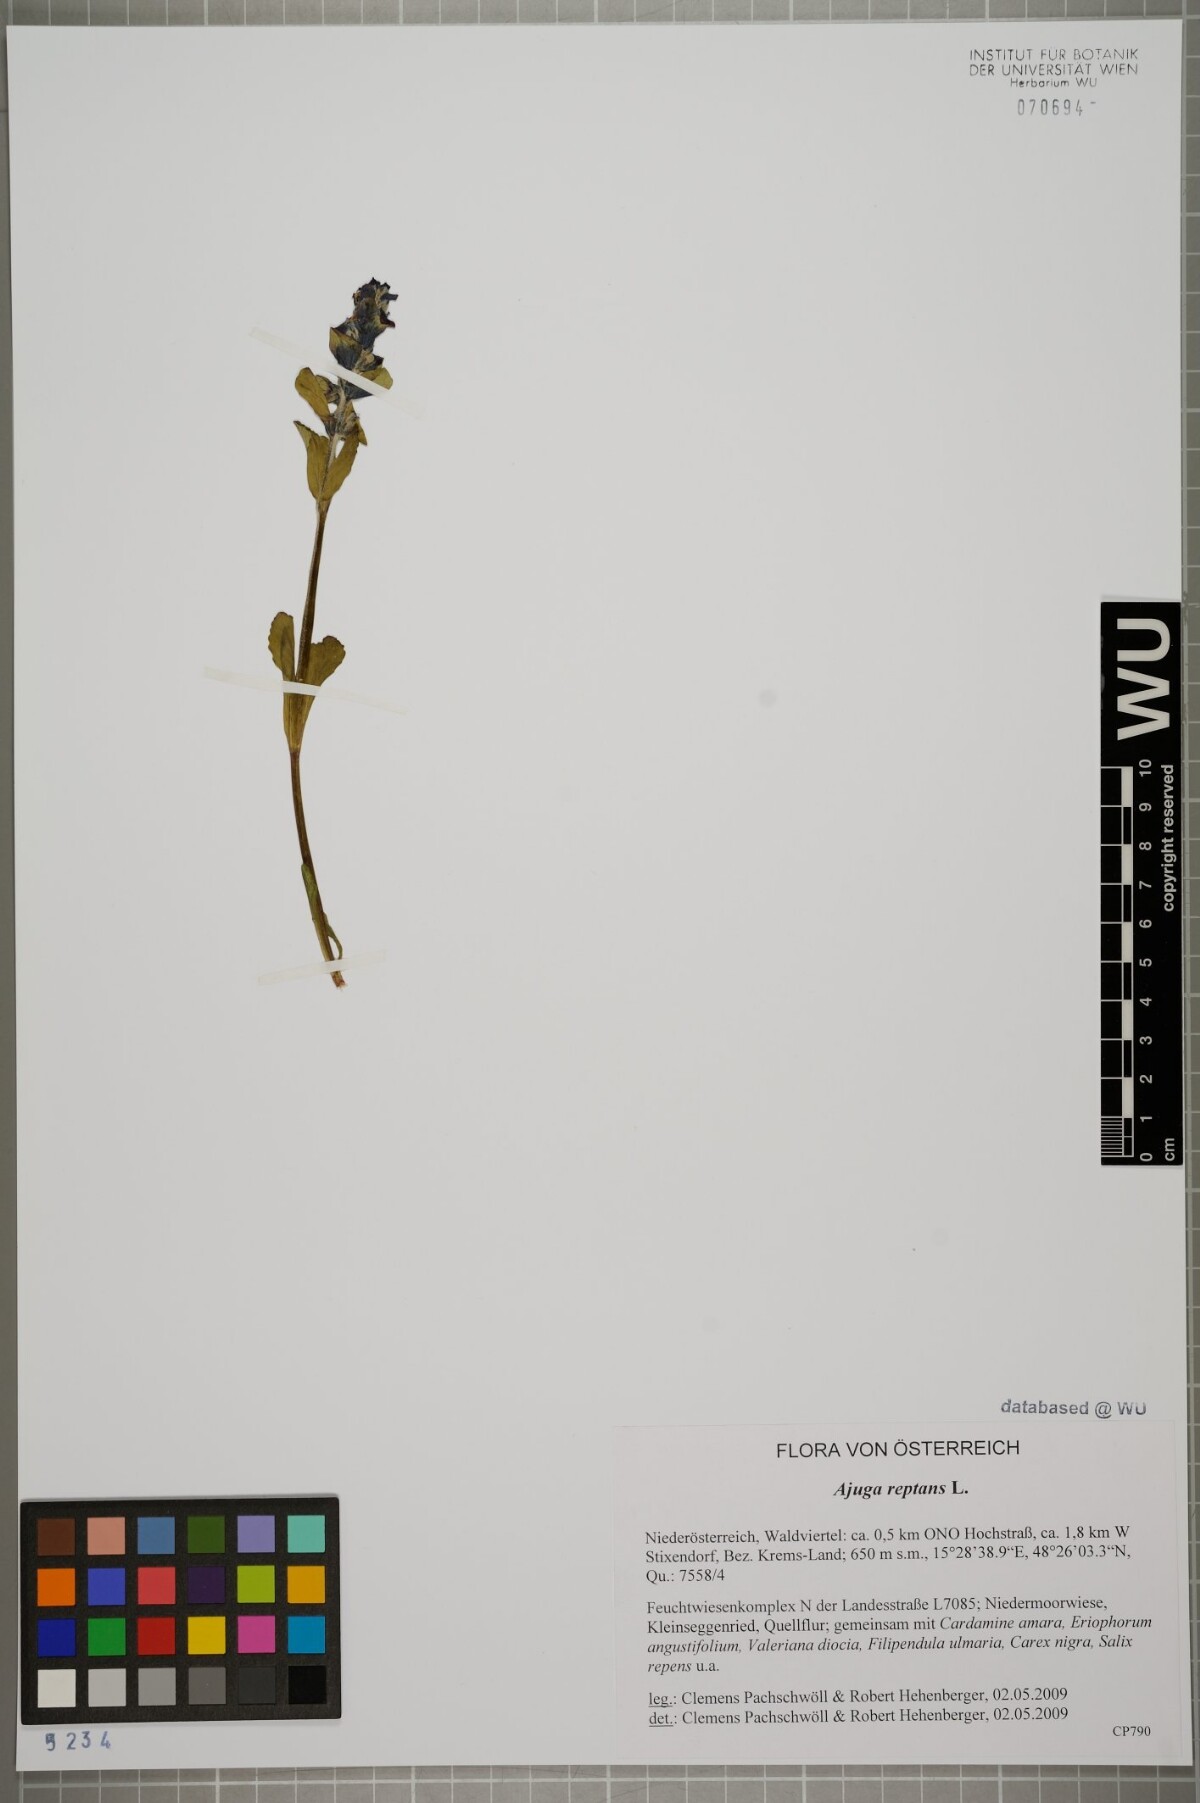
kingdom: Plantae
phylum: Tracheophyta
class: Magnoliopsida
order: Lamiales
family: Lamiaceae
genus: Ajuga
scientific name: Ajuga reptans
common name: Bugle
